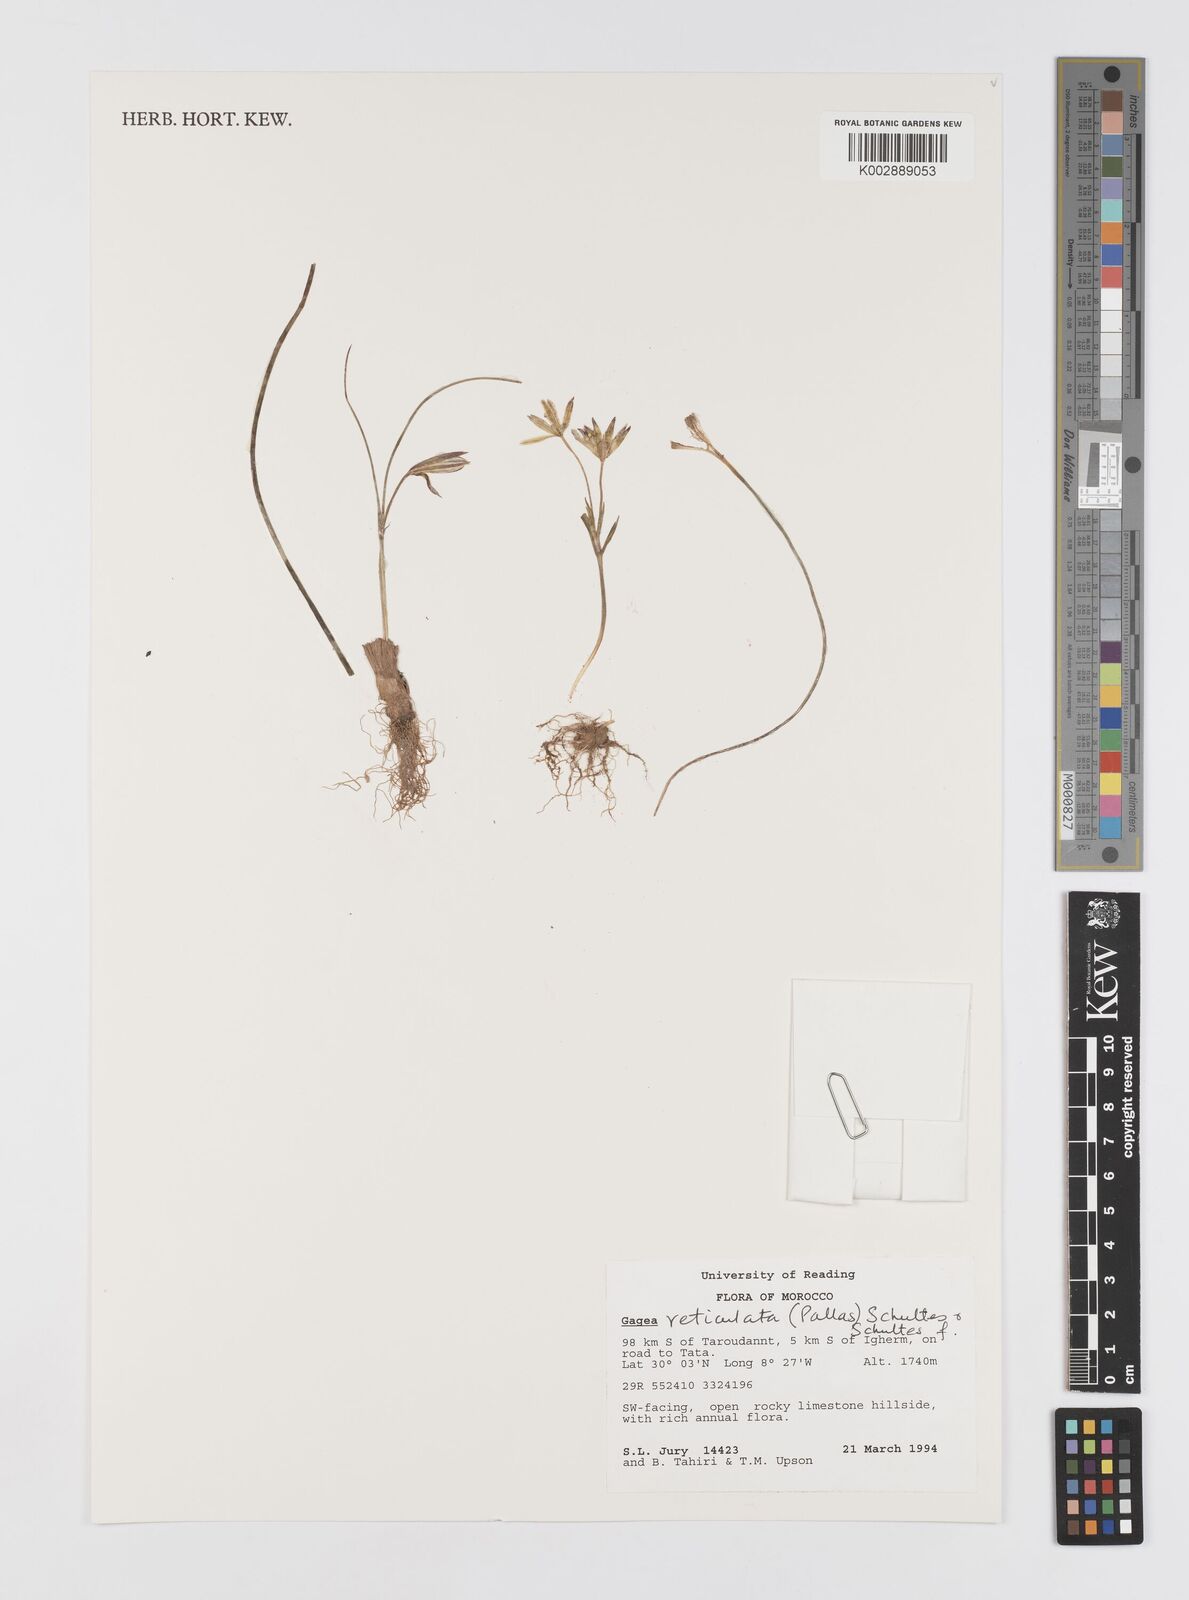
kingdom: Plantae
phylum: Tracheophyta
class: Liliopsida
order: Liliales
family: Liliaceae
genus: Gagea
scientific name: Gagea reticulata
